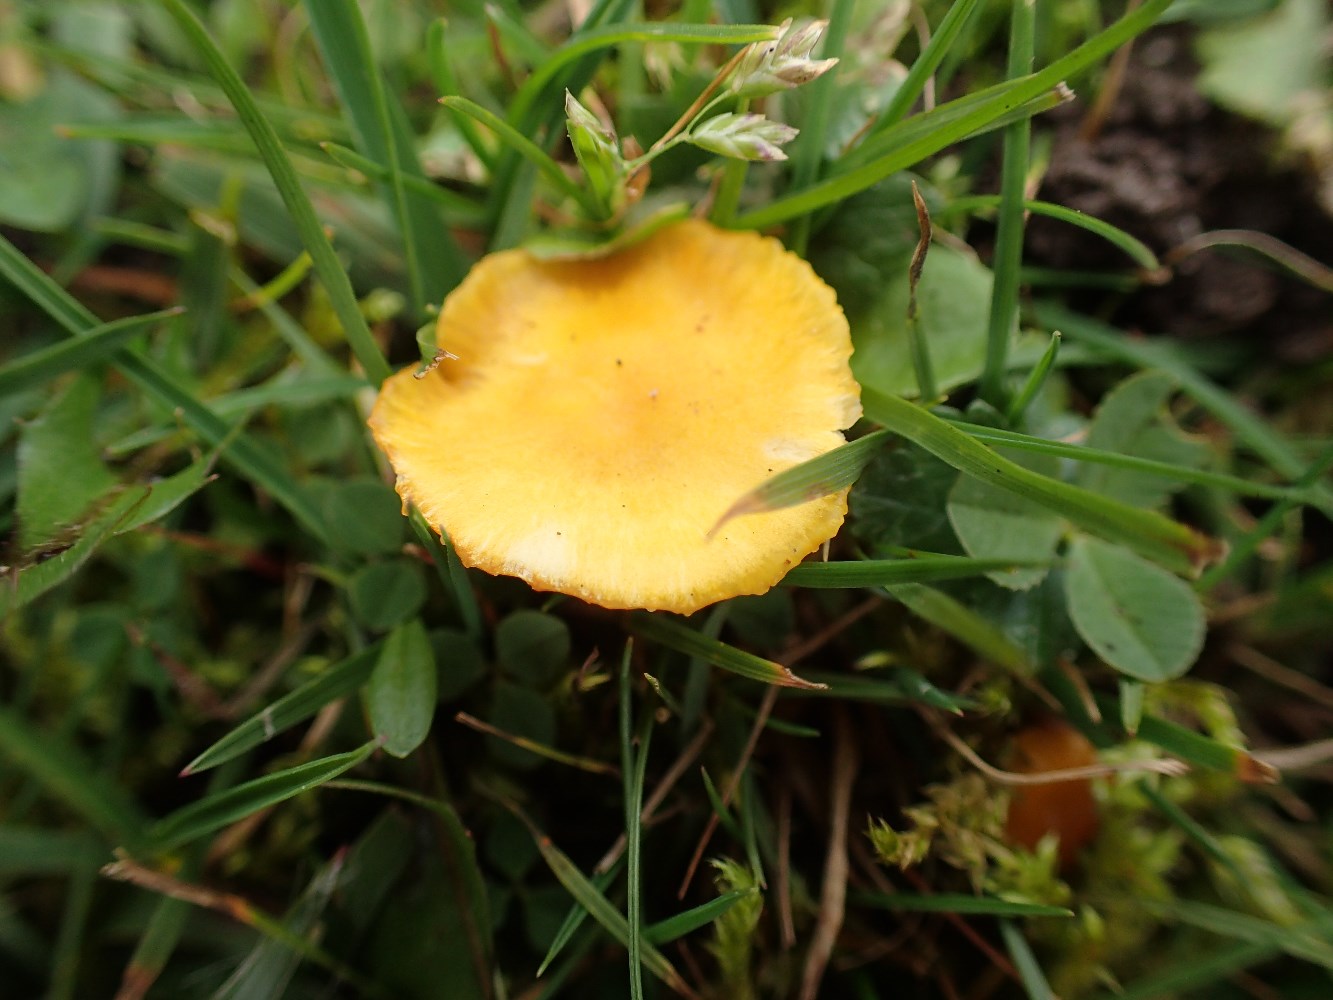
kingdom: Fungi
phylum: Basidiomycota
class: Agaricomycetes
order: Agaricales
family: Hygrophoraceae
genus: Hygrocybe
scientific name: Hygrocybe ceracea
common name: voksgul vokshat
